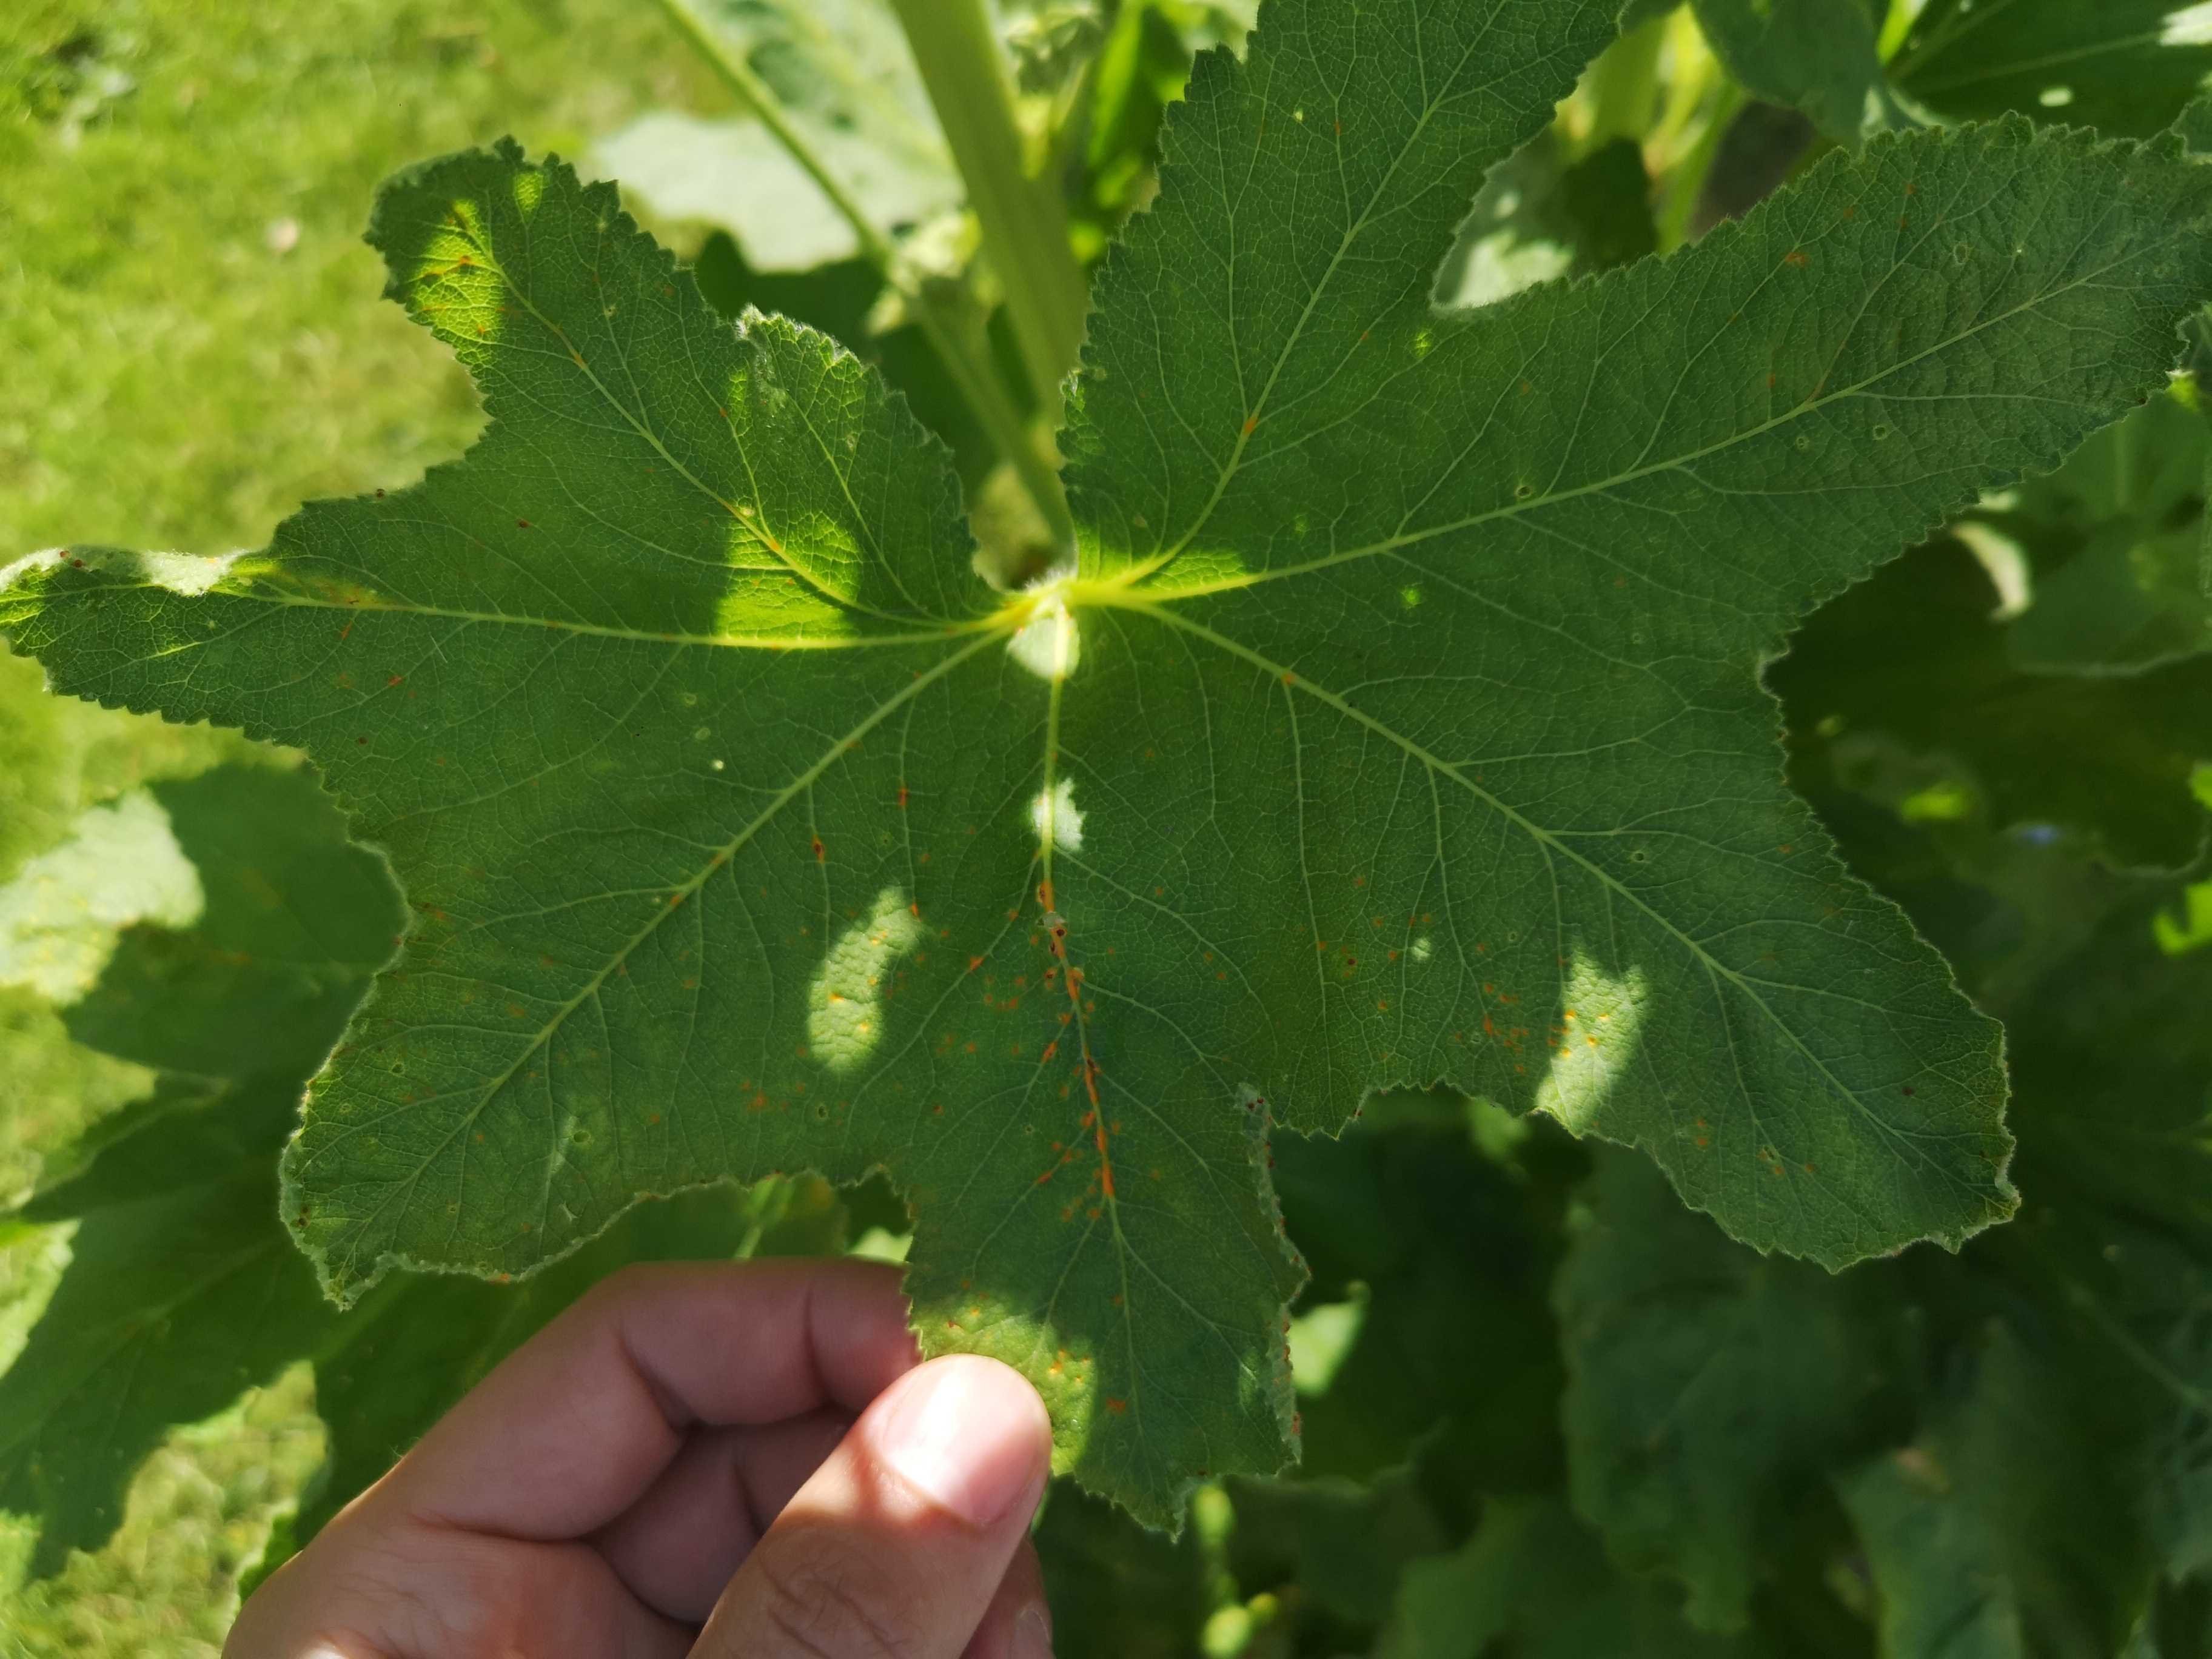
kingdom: Fungi
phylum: Basidiomycota
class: Pucciniomycetes
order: Pucciniales
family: Pucciniaceae
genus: Puccinia
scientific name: Puccinia malvacearum
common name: stokrose-tvecellerust
